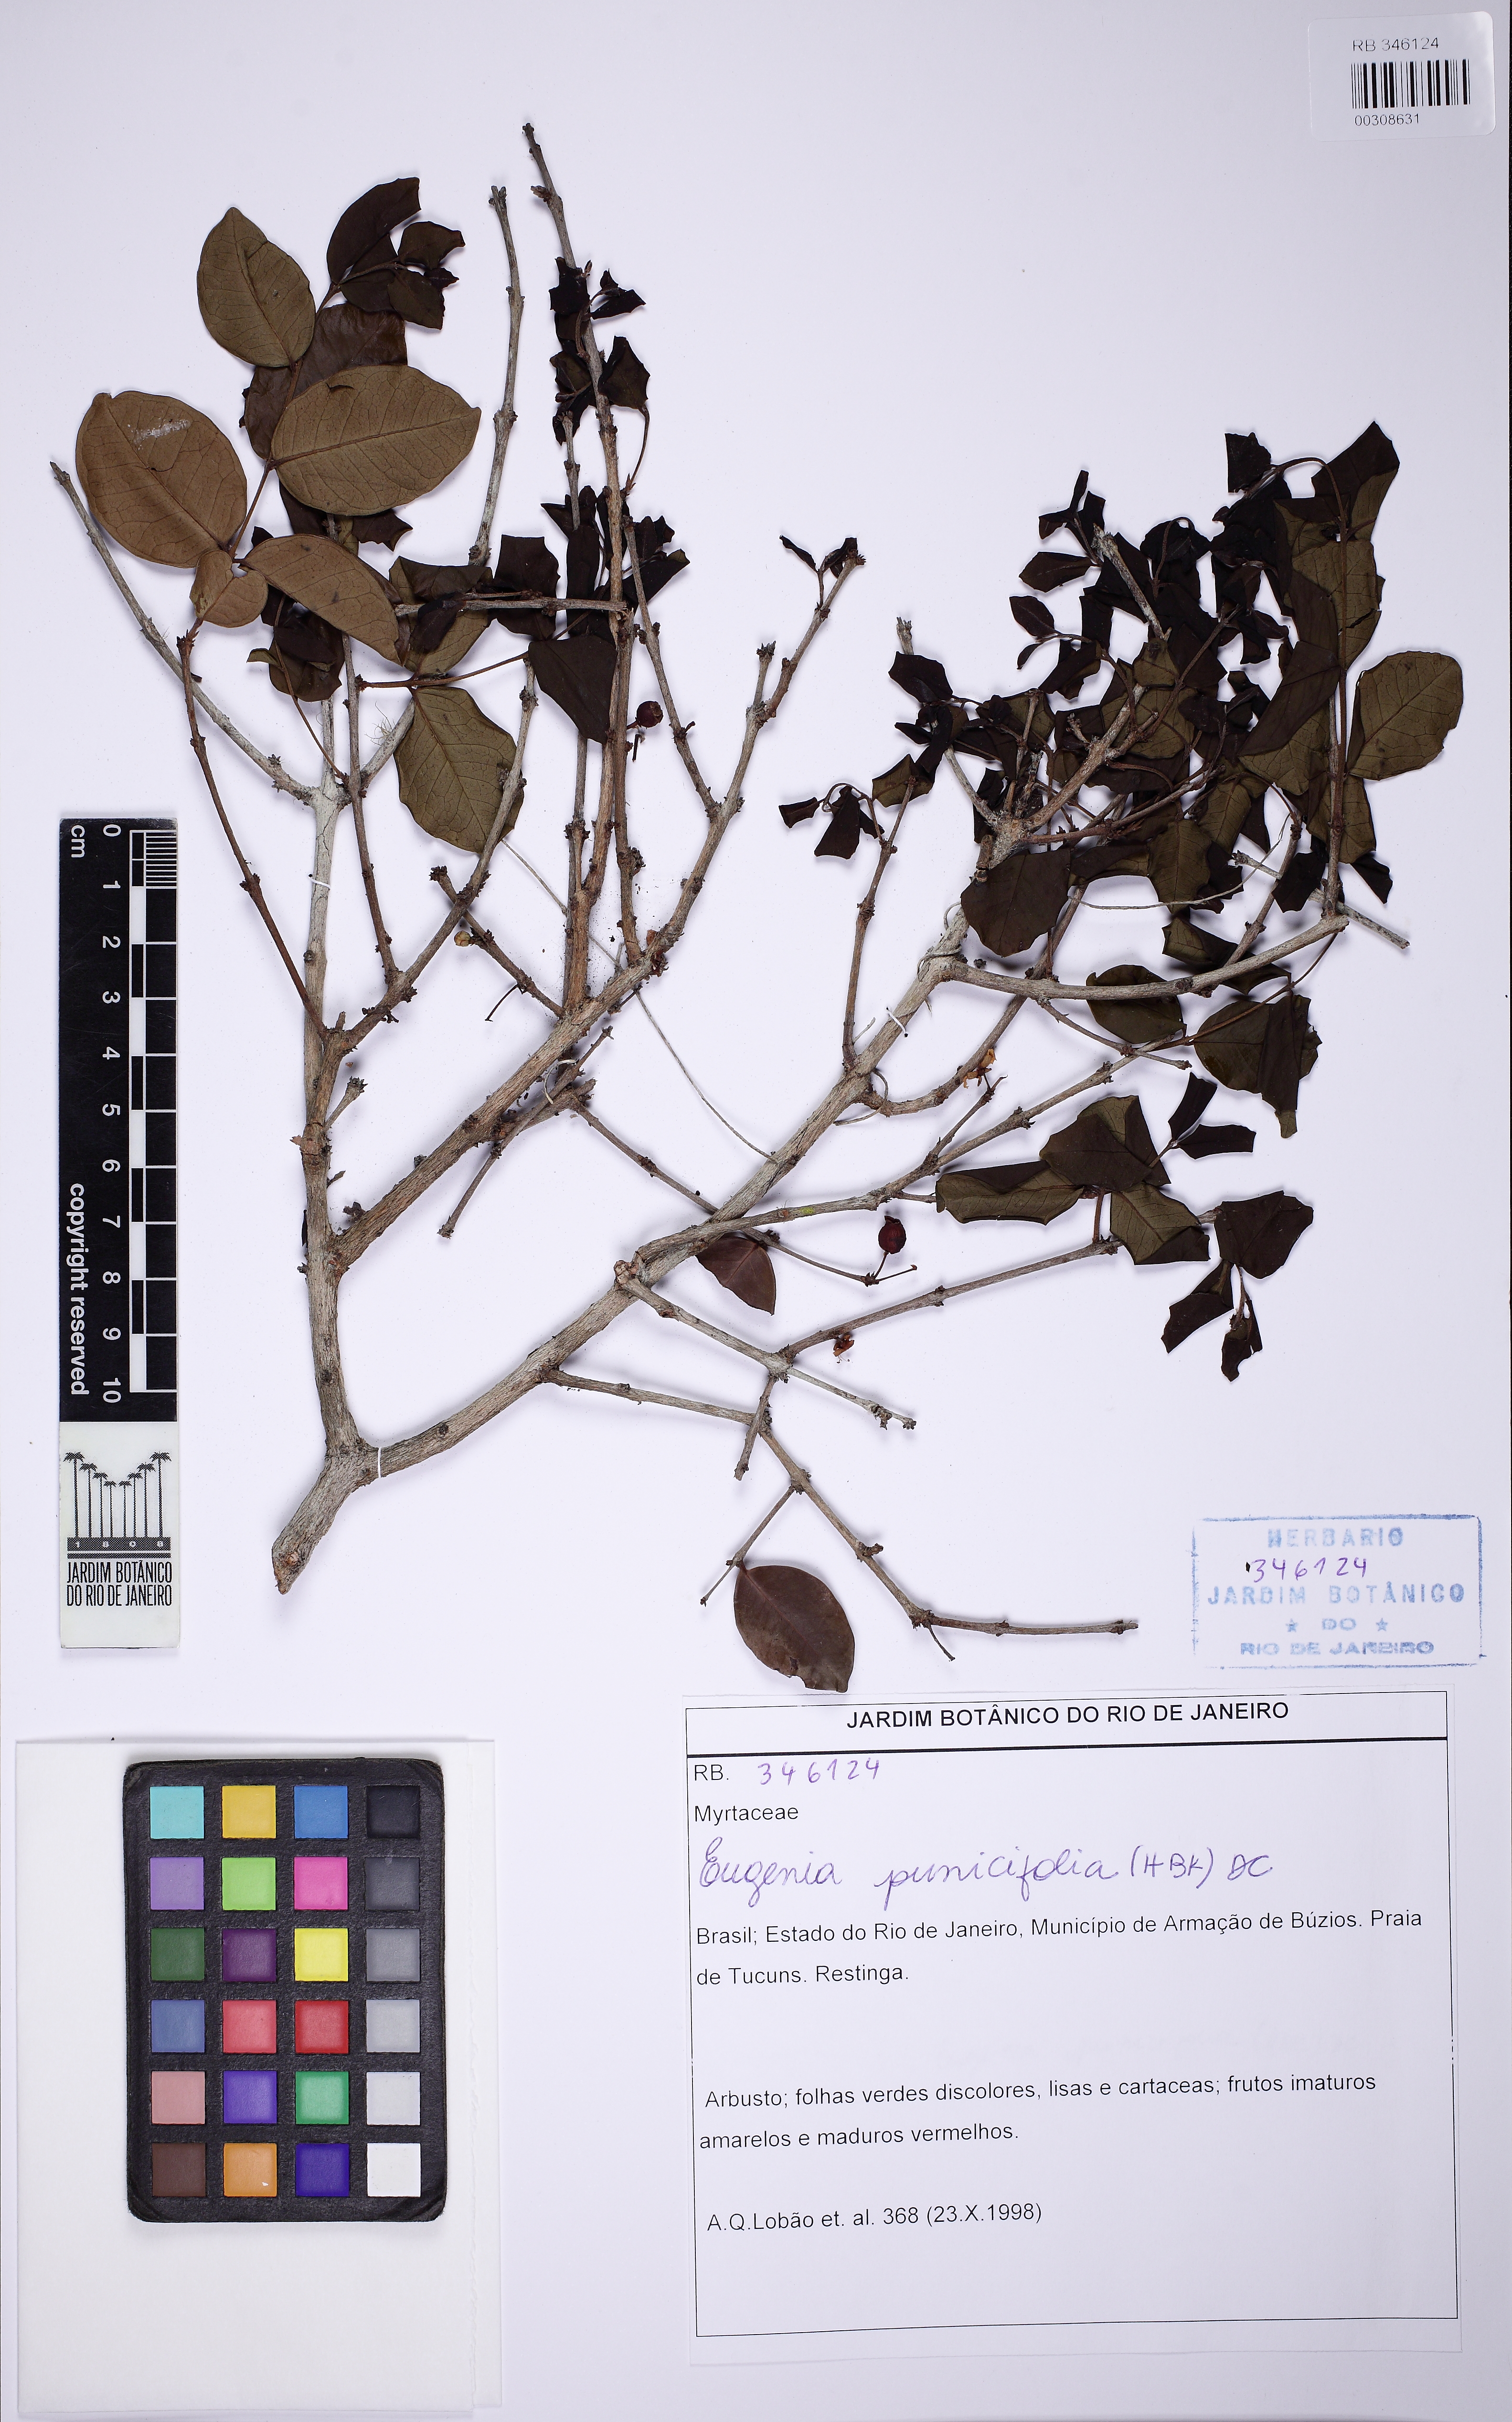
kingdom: Plantae
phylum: Tracheophyta
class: Magnoliopsida
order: Myrtales
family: Myrtaceae
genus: Eugenia
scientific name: Eugenia punicifolia
